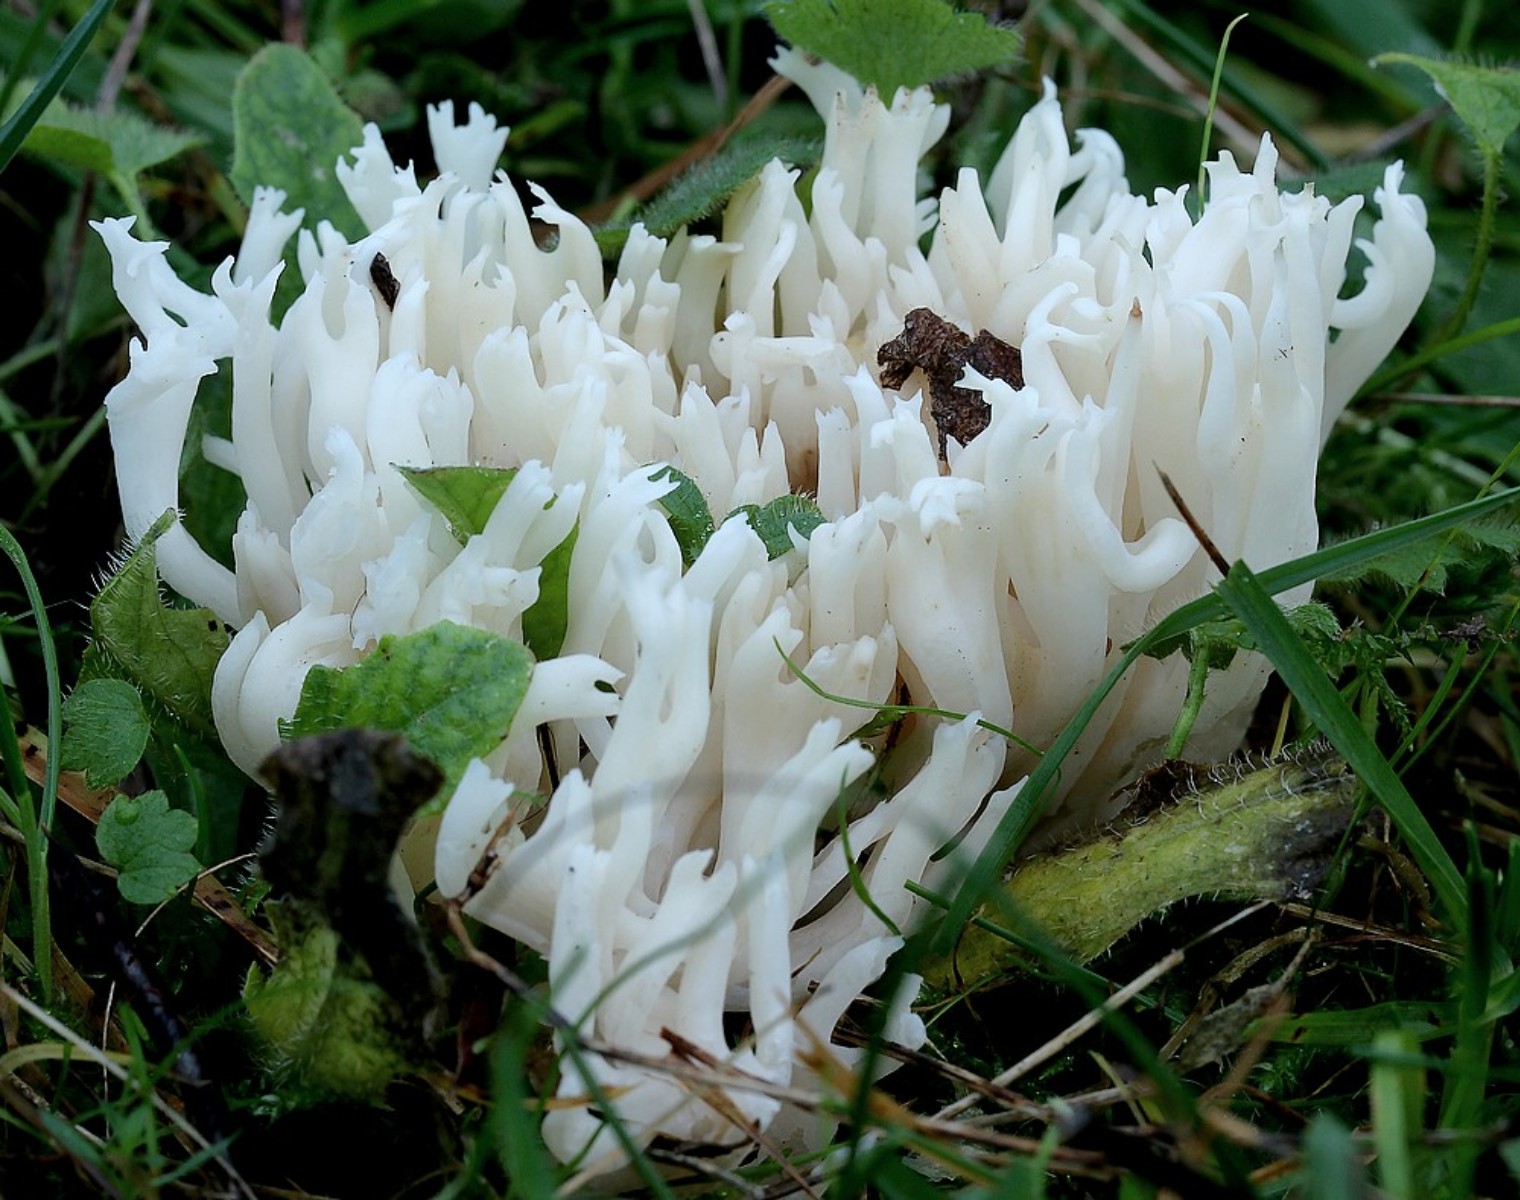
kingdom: Fungi
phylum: Basidiomycota
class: Agaricomycetes
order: Agaricales
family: Clavariaceae
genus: Ramariopsis
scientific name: Ramariopsis robusta
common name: tykgrenet køllesvamp
